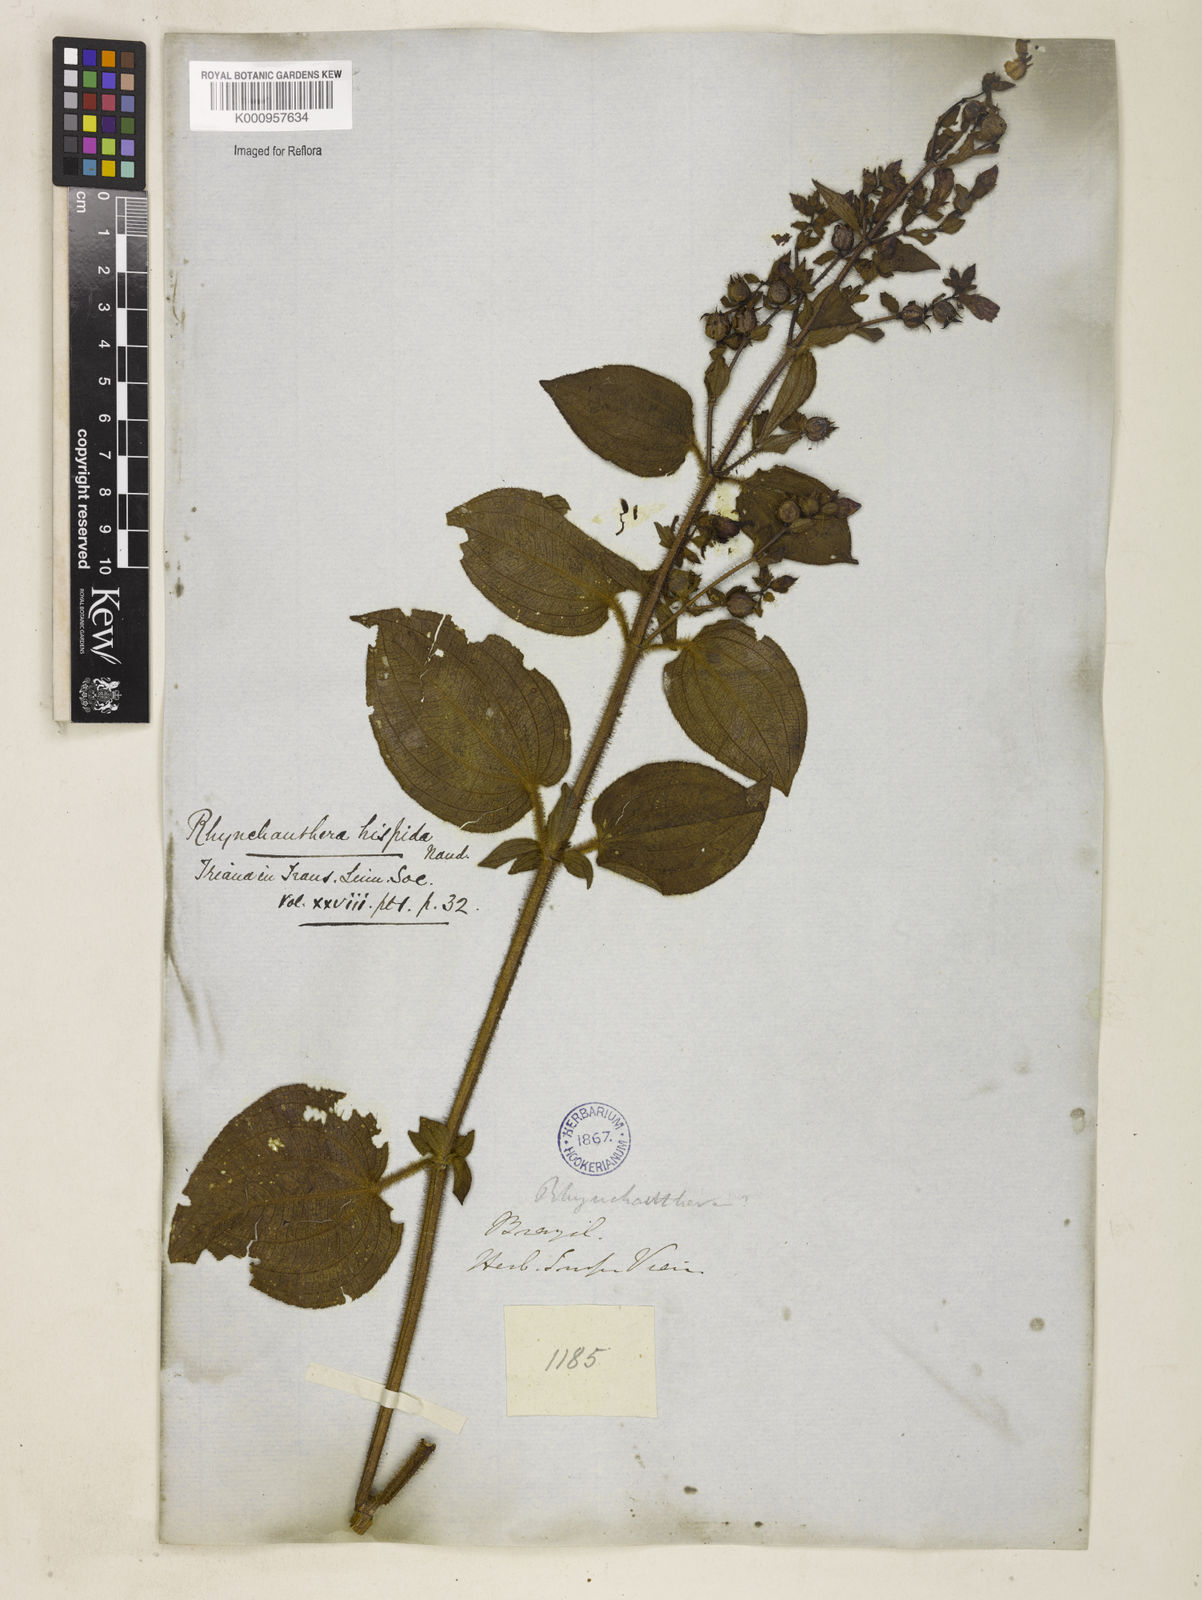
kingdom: Plantae
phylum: Tracheophyta
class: Magnoliopsida
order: Myrtales
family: Melastomataceae
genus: Rhynchanthera
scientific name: Rhynchanthera hispida
